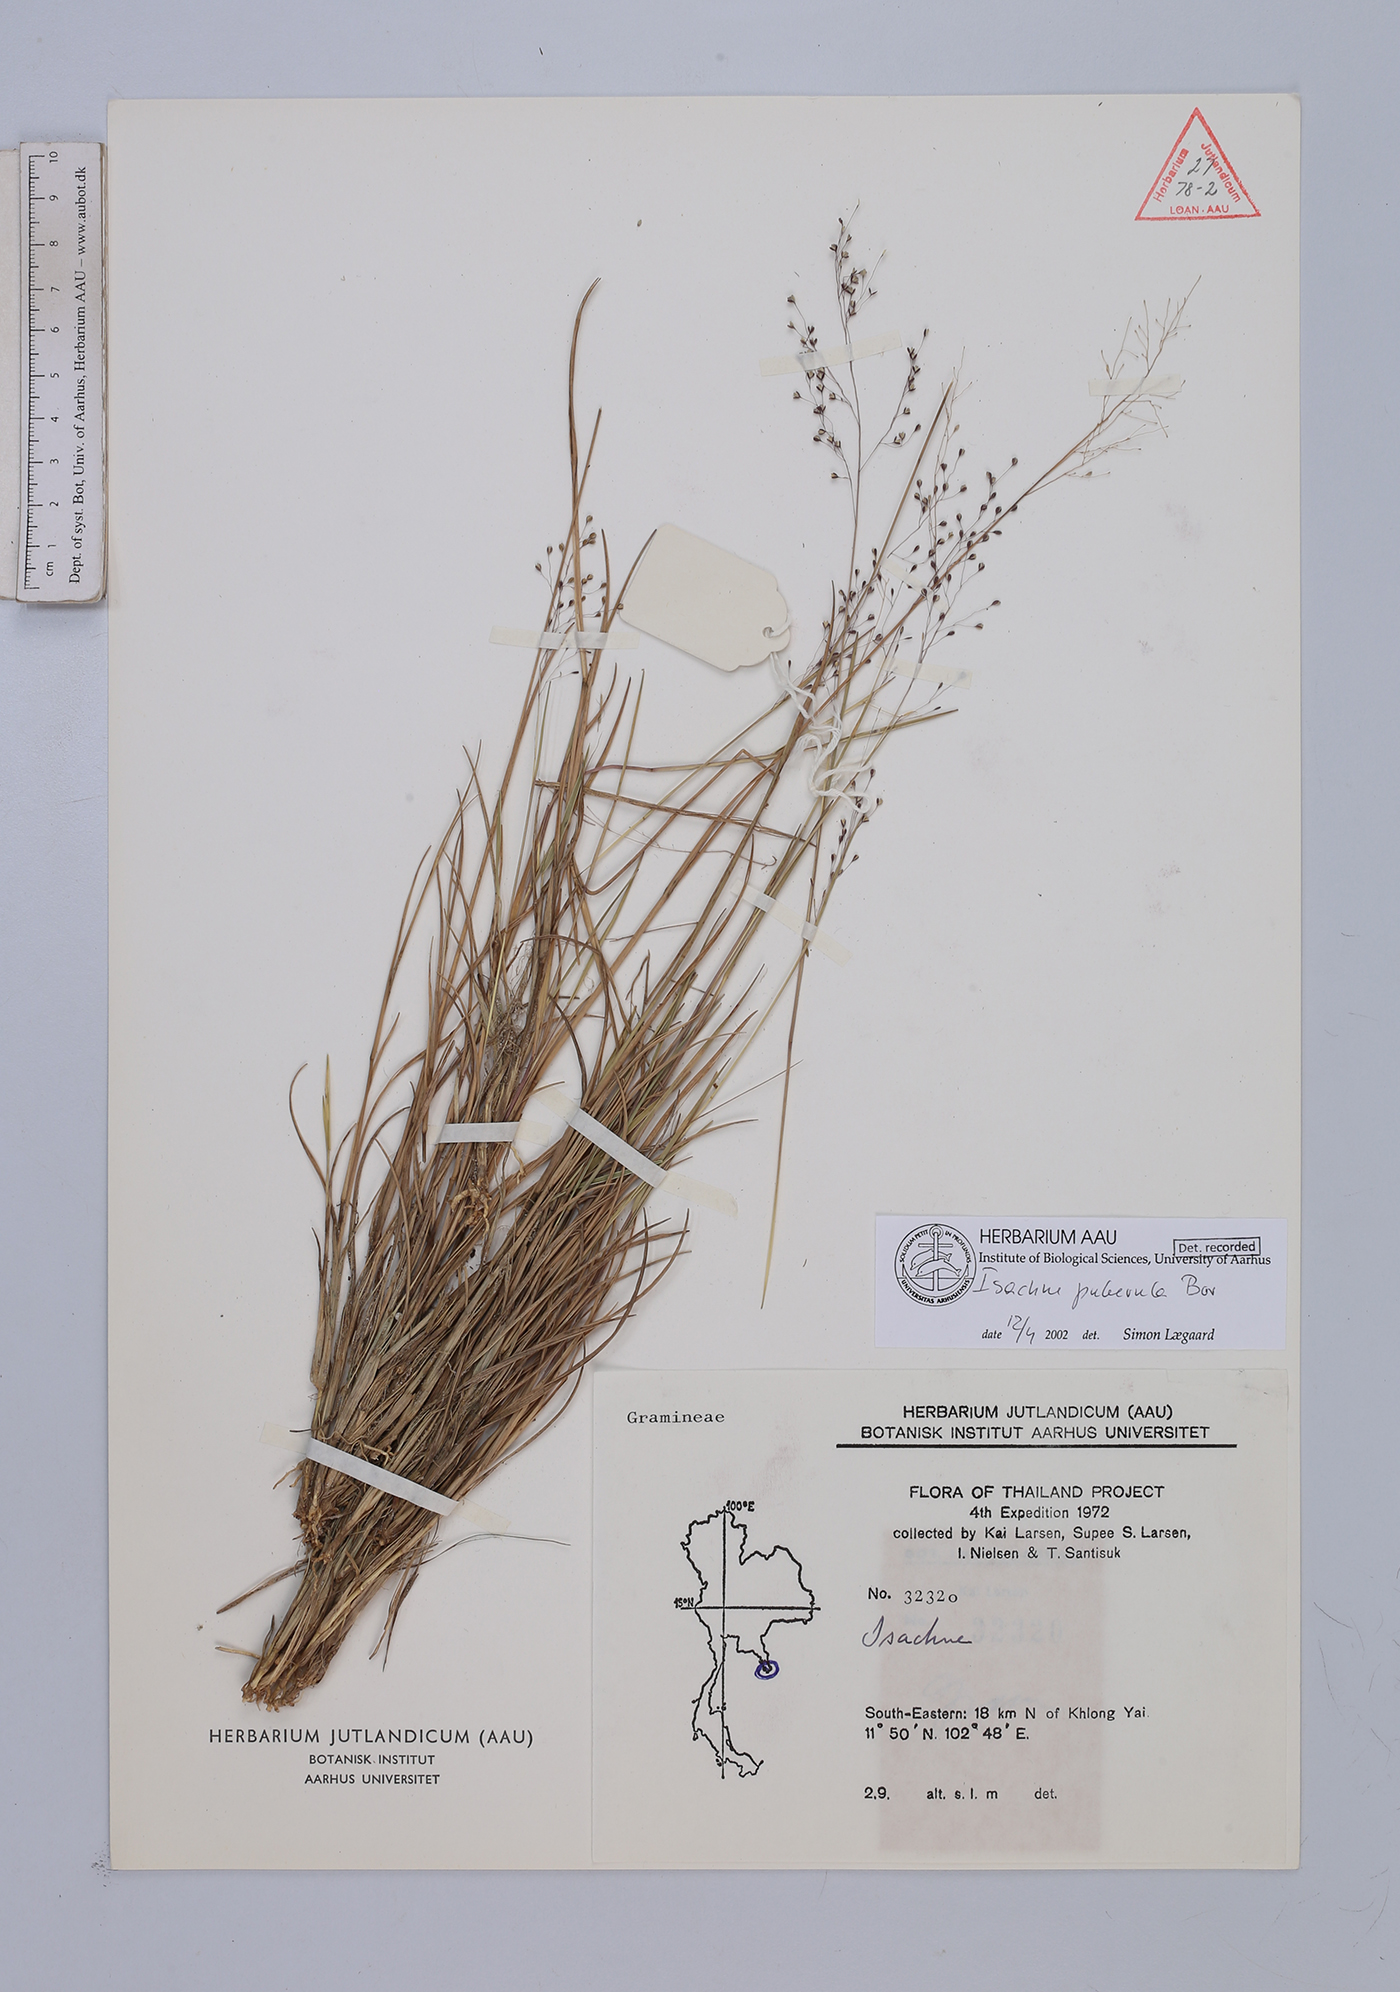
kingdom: Plantae
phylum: Tracheophyta
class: Liliopsida
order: Poales
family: Poaceae
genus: Isachne
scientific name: Isachne puberula
